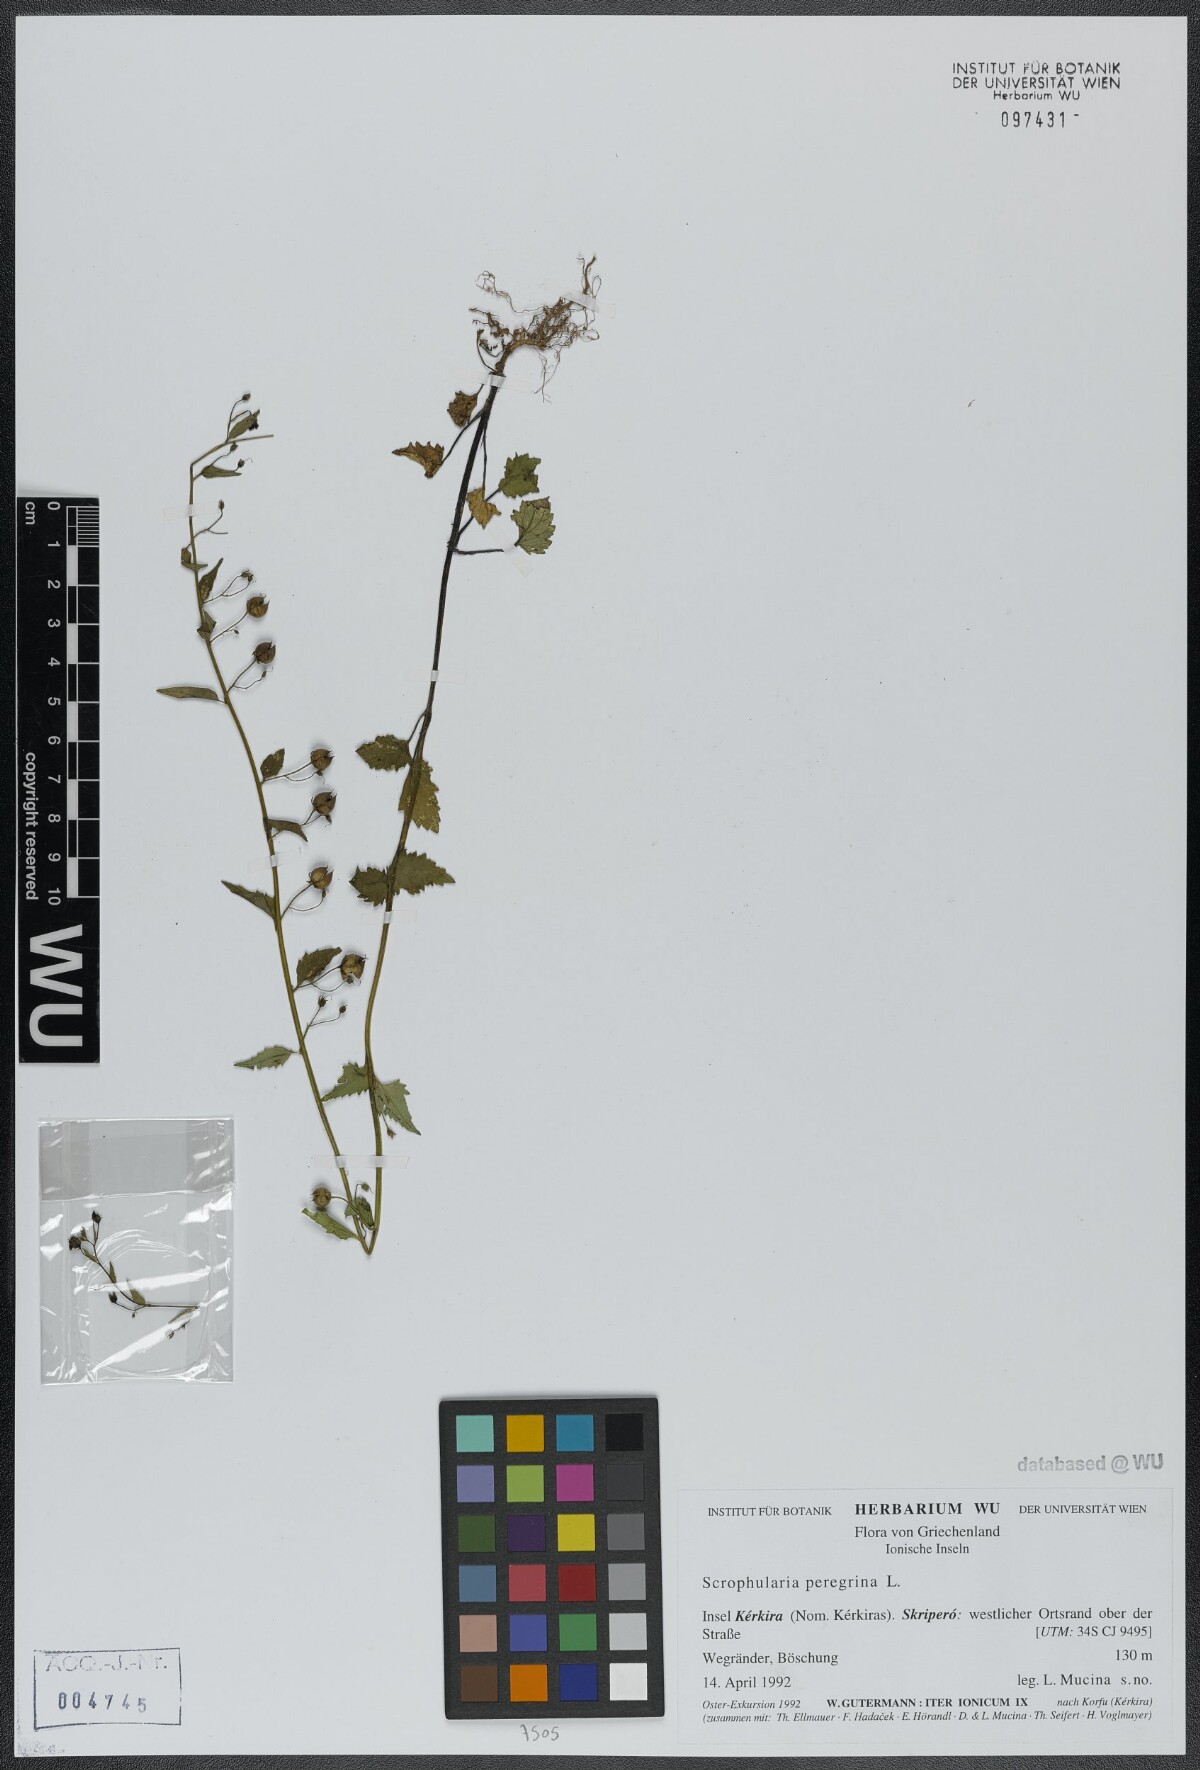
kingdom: Plantae
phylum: Tracheophyta
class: Magnoliopsida
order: Lamiales
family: Scrophulariaceae
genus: Scrophularia
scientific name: Scrophularia peregrina
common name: Mediterranean figwort
